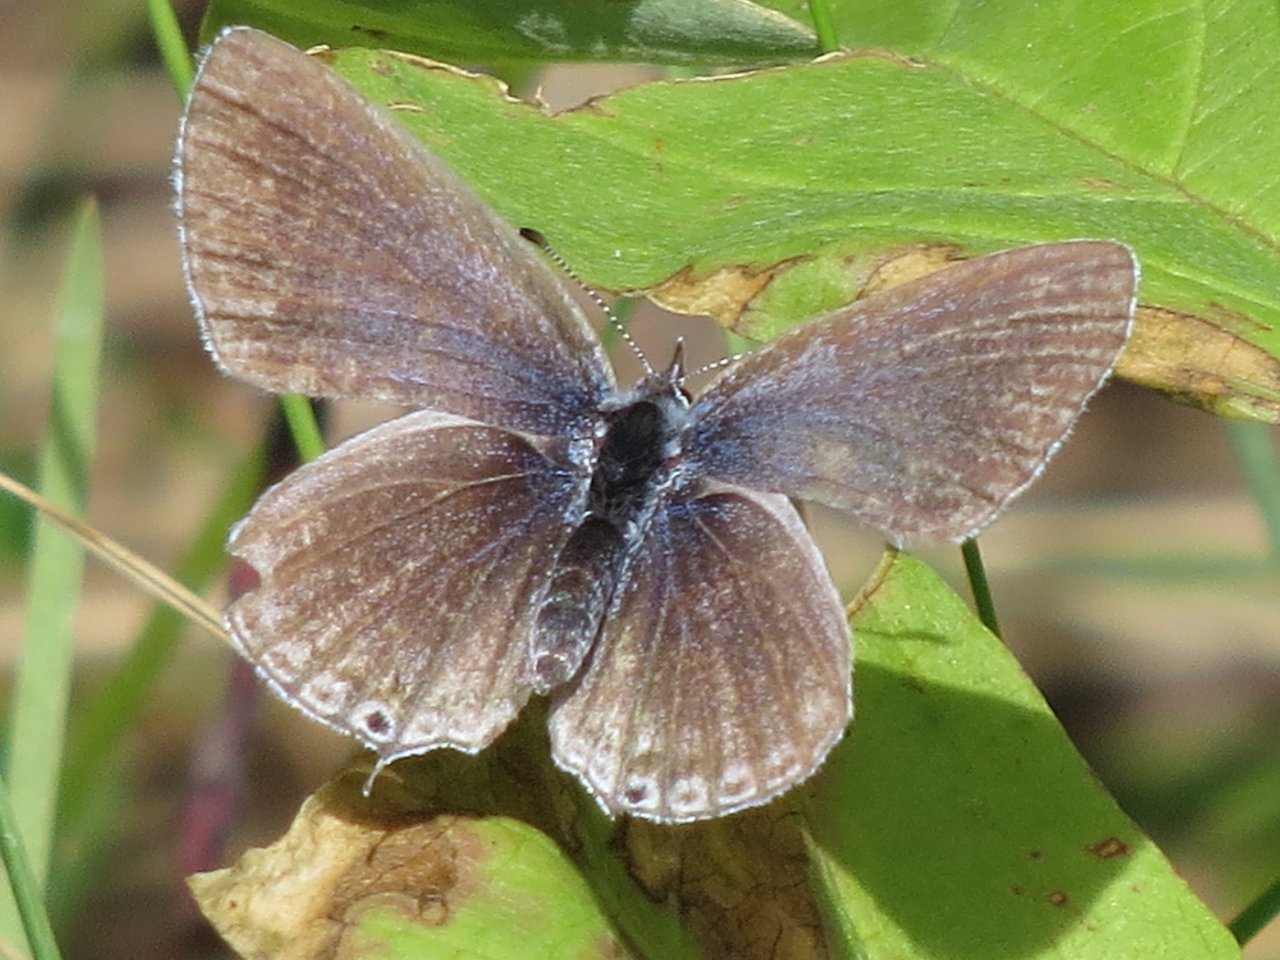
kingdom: Animalia
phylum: Arthropoda
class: Insecta
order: Lepidoptera
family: Lycaenidae
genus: Elkalyce
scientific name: Elkalyce amyntula
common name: Western Tailed-Blue
